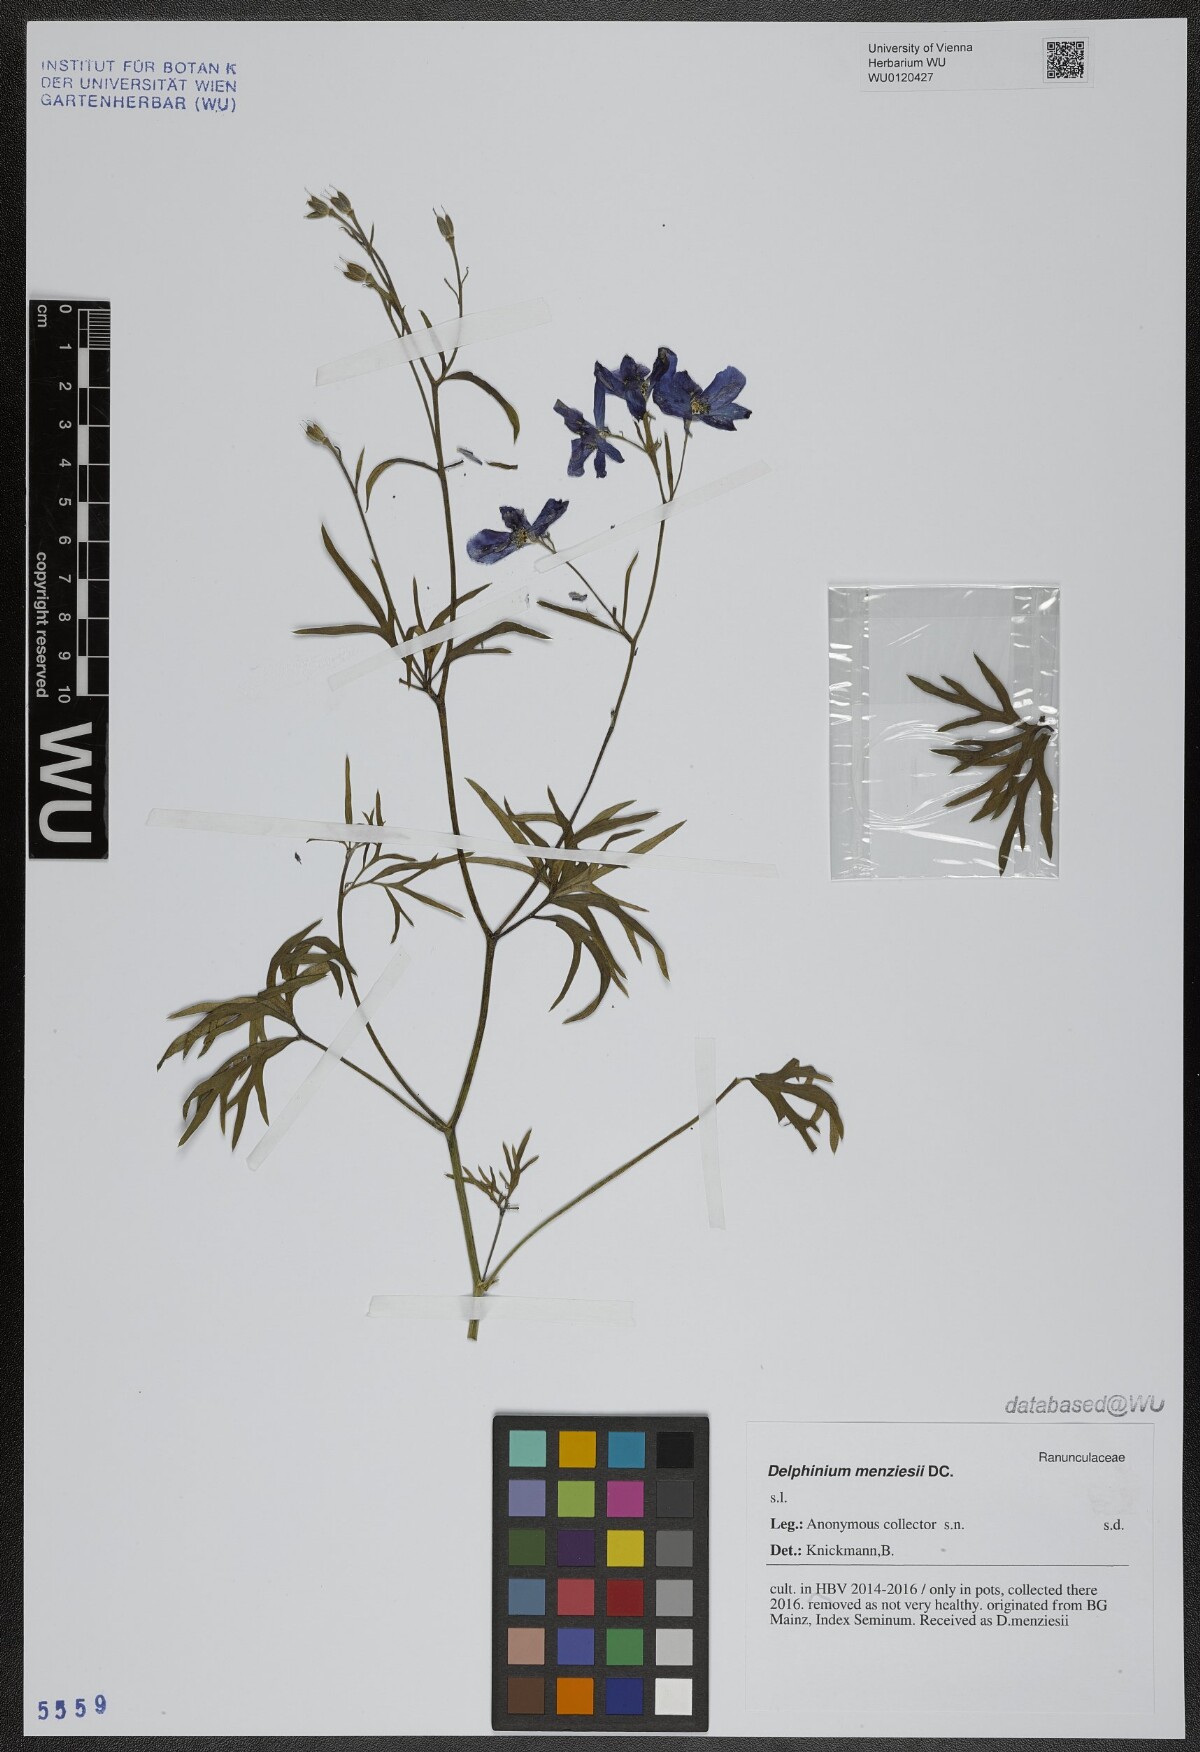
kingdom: Plantae
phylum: Tracheophyta
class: Magnoliopsida
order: Ranunculales
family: Ranunculaceae
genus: Delphinium
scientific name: Delphinium menziesii
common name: Menzies's larkspur
